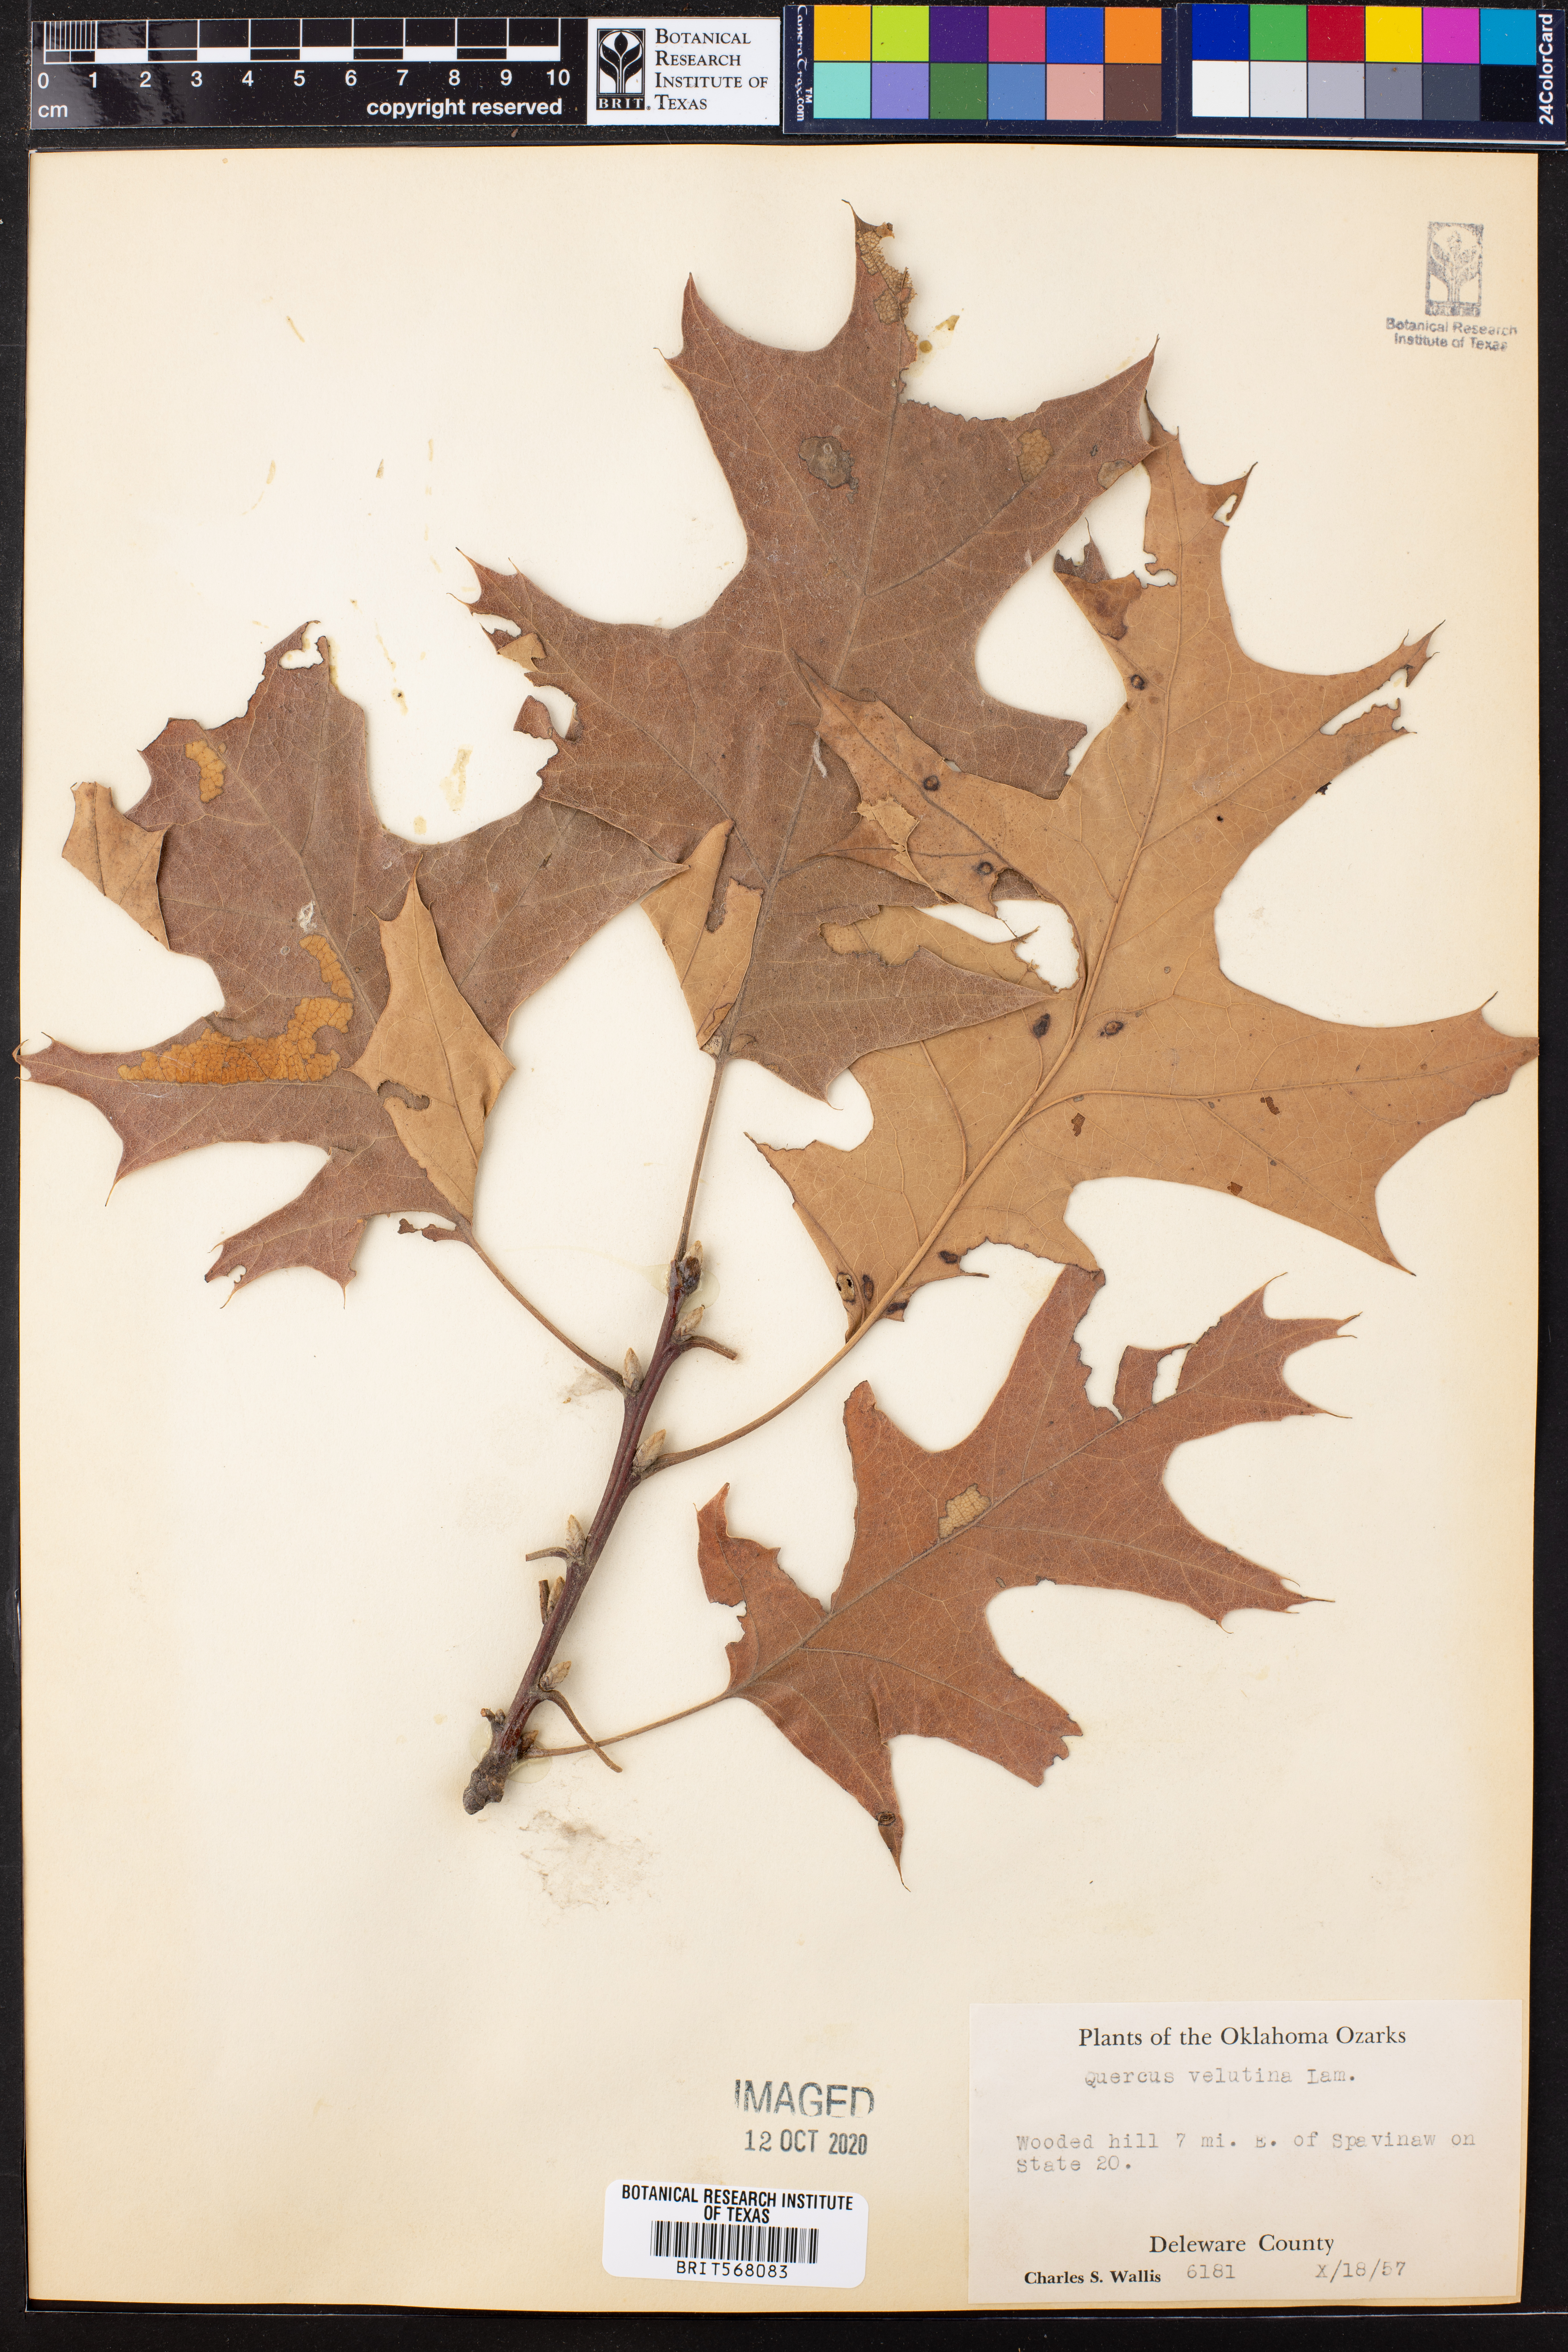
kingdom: Plantae
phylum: Tracheophyta
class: Magnoliopsida
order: Fagales
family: Fagaceae
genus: Quercus
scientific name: Quercus velutina
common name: Black oak
